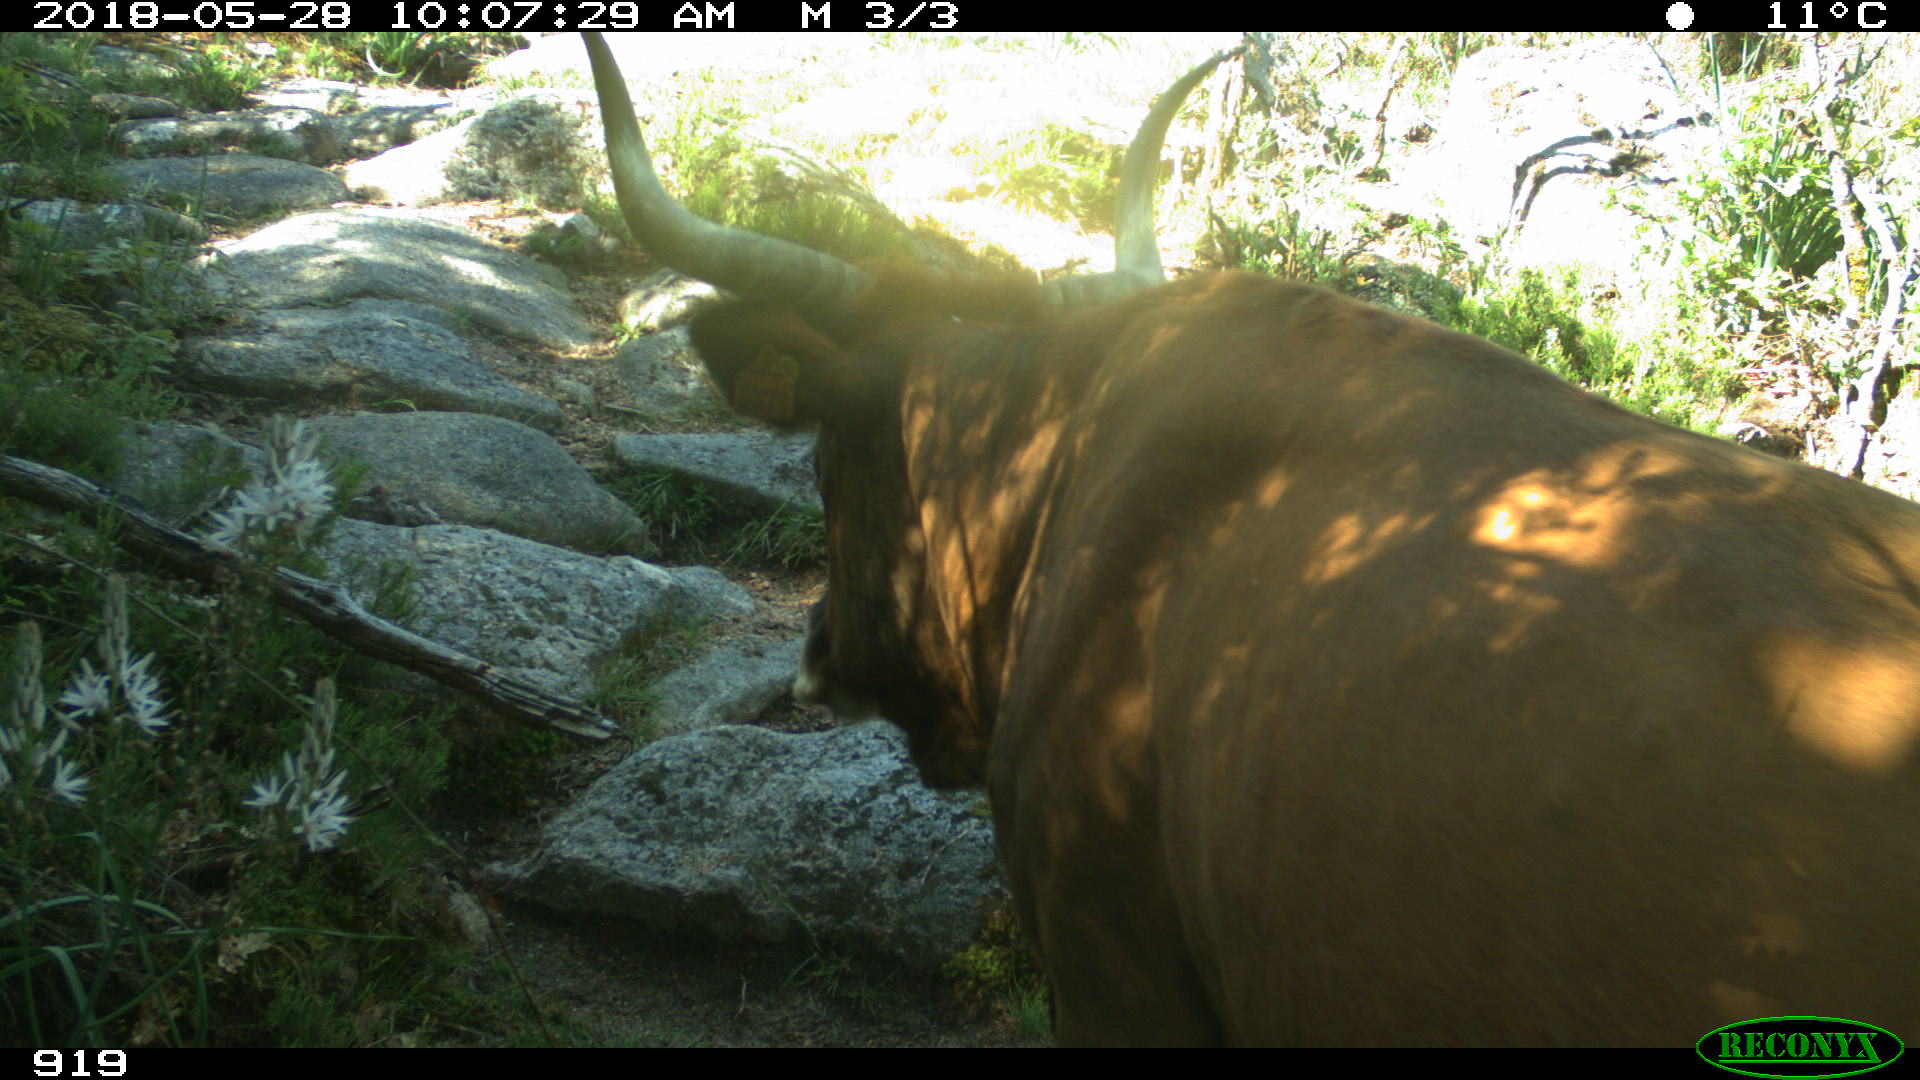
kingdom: Animalia
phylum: Chordata
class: Mammalia
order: Artiodactyla
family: Bovidae
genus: Bos
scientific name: Bos taurus
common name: Domesticated cattle
